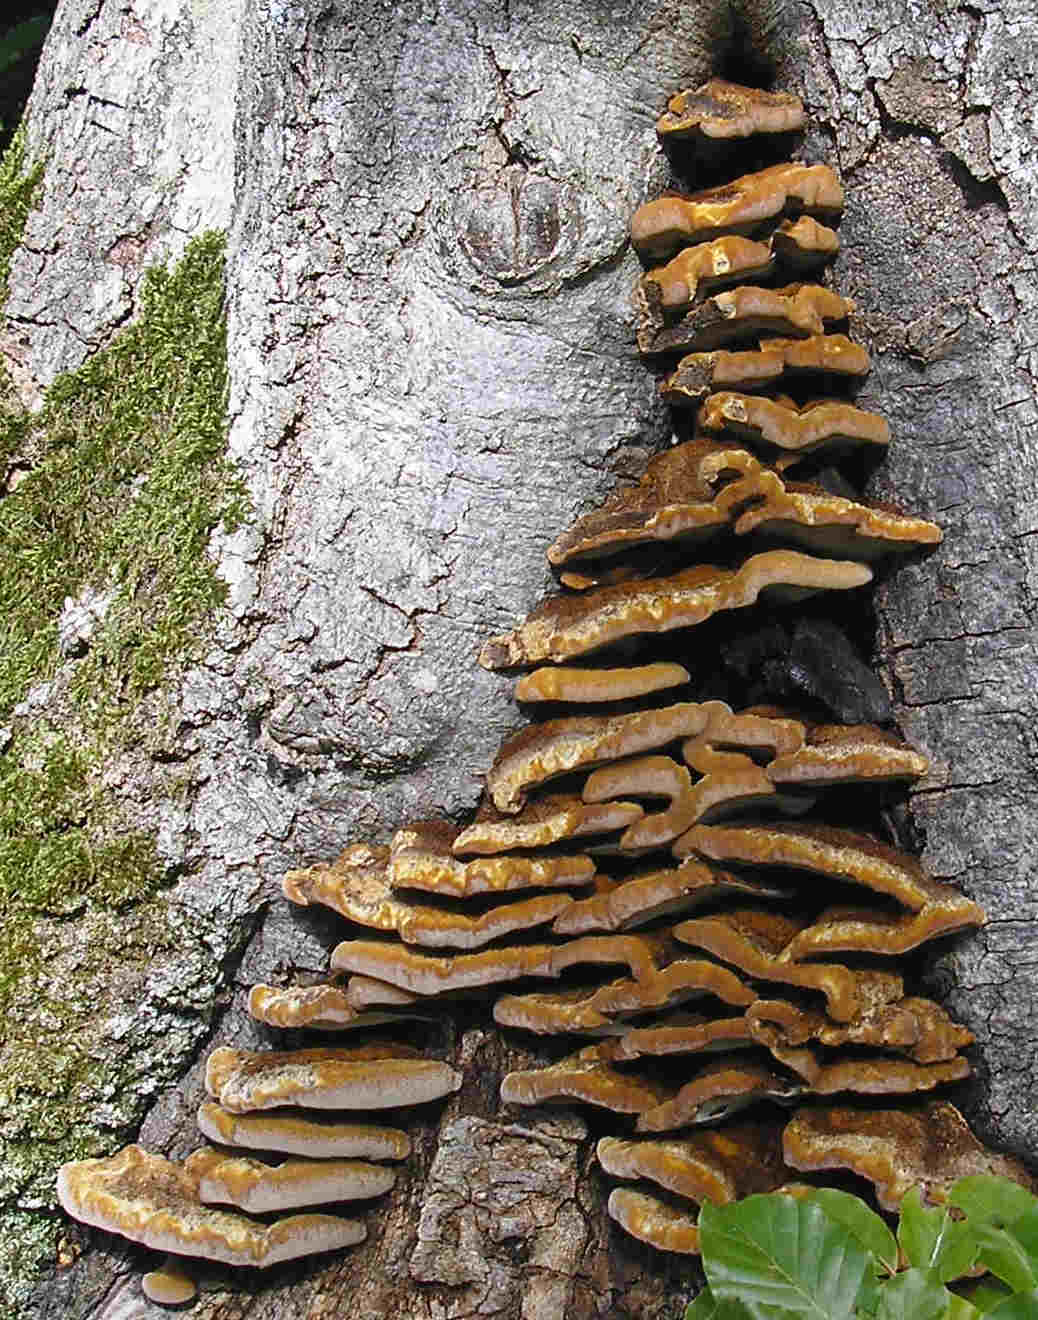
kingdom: Fungi
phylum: Basidiomycota
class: Agaricomycetes
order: Hymenochaetales
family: Hymenochaetaceae
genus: Inonotus
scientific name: Inonotus cuticularis
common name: kroghåret spejlporesvamp
